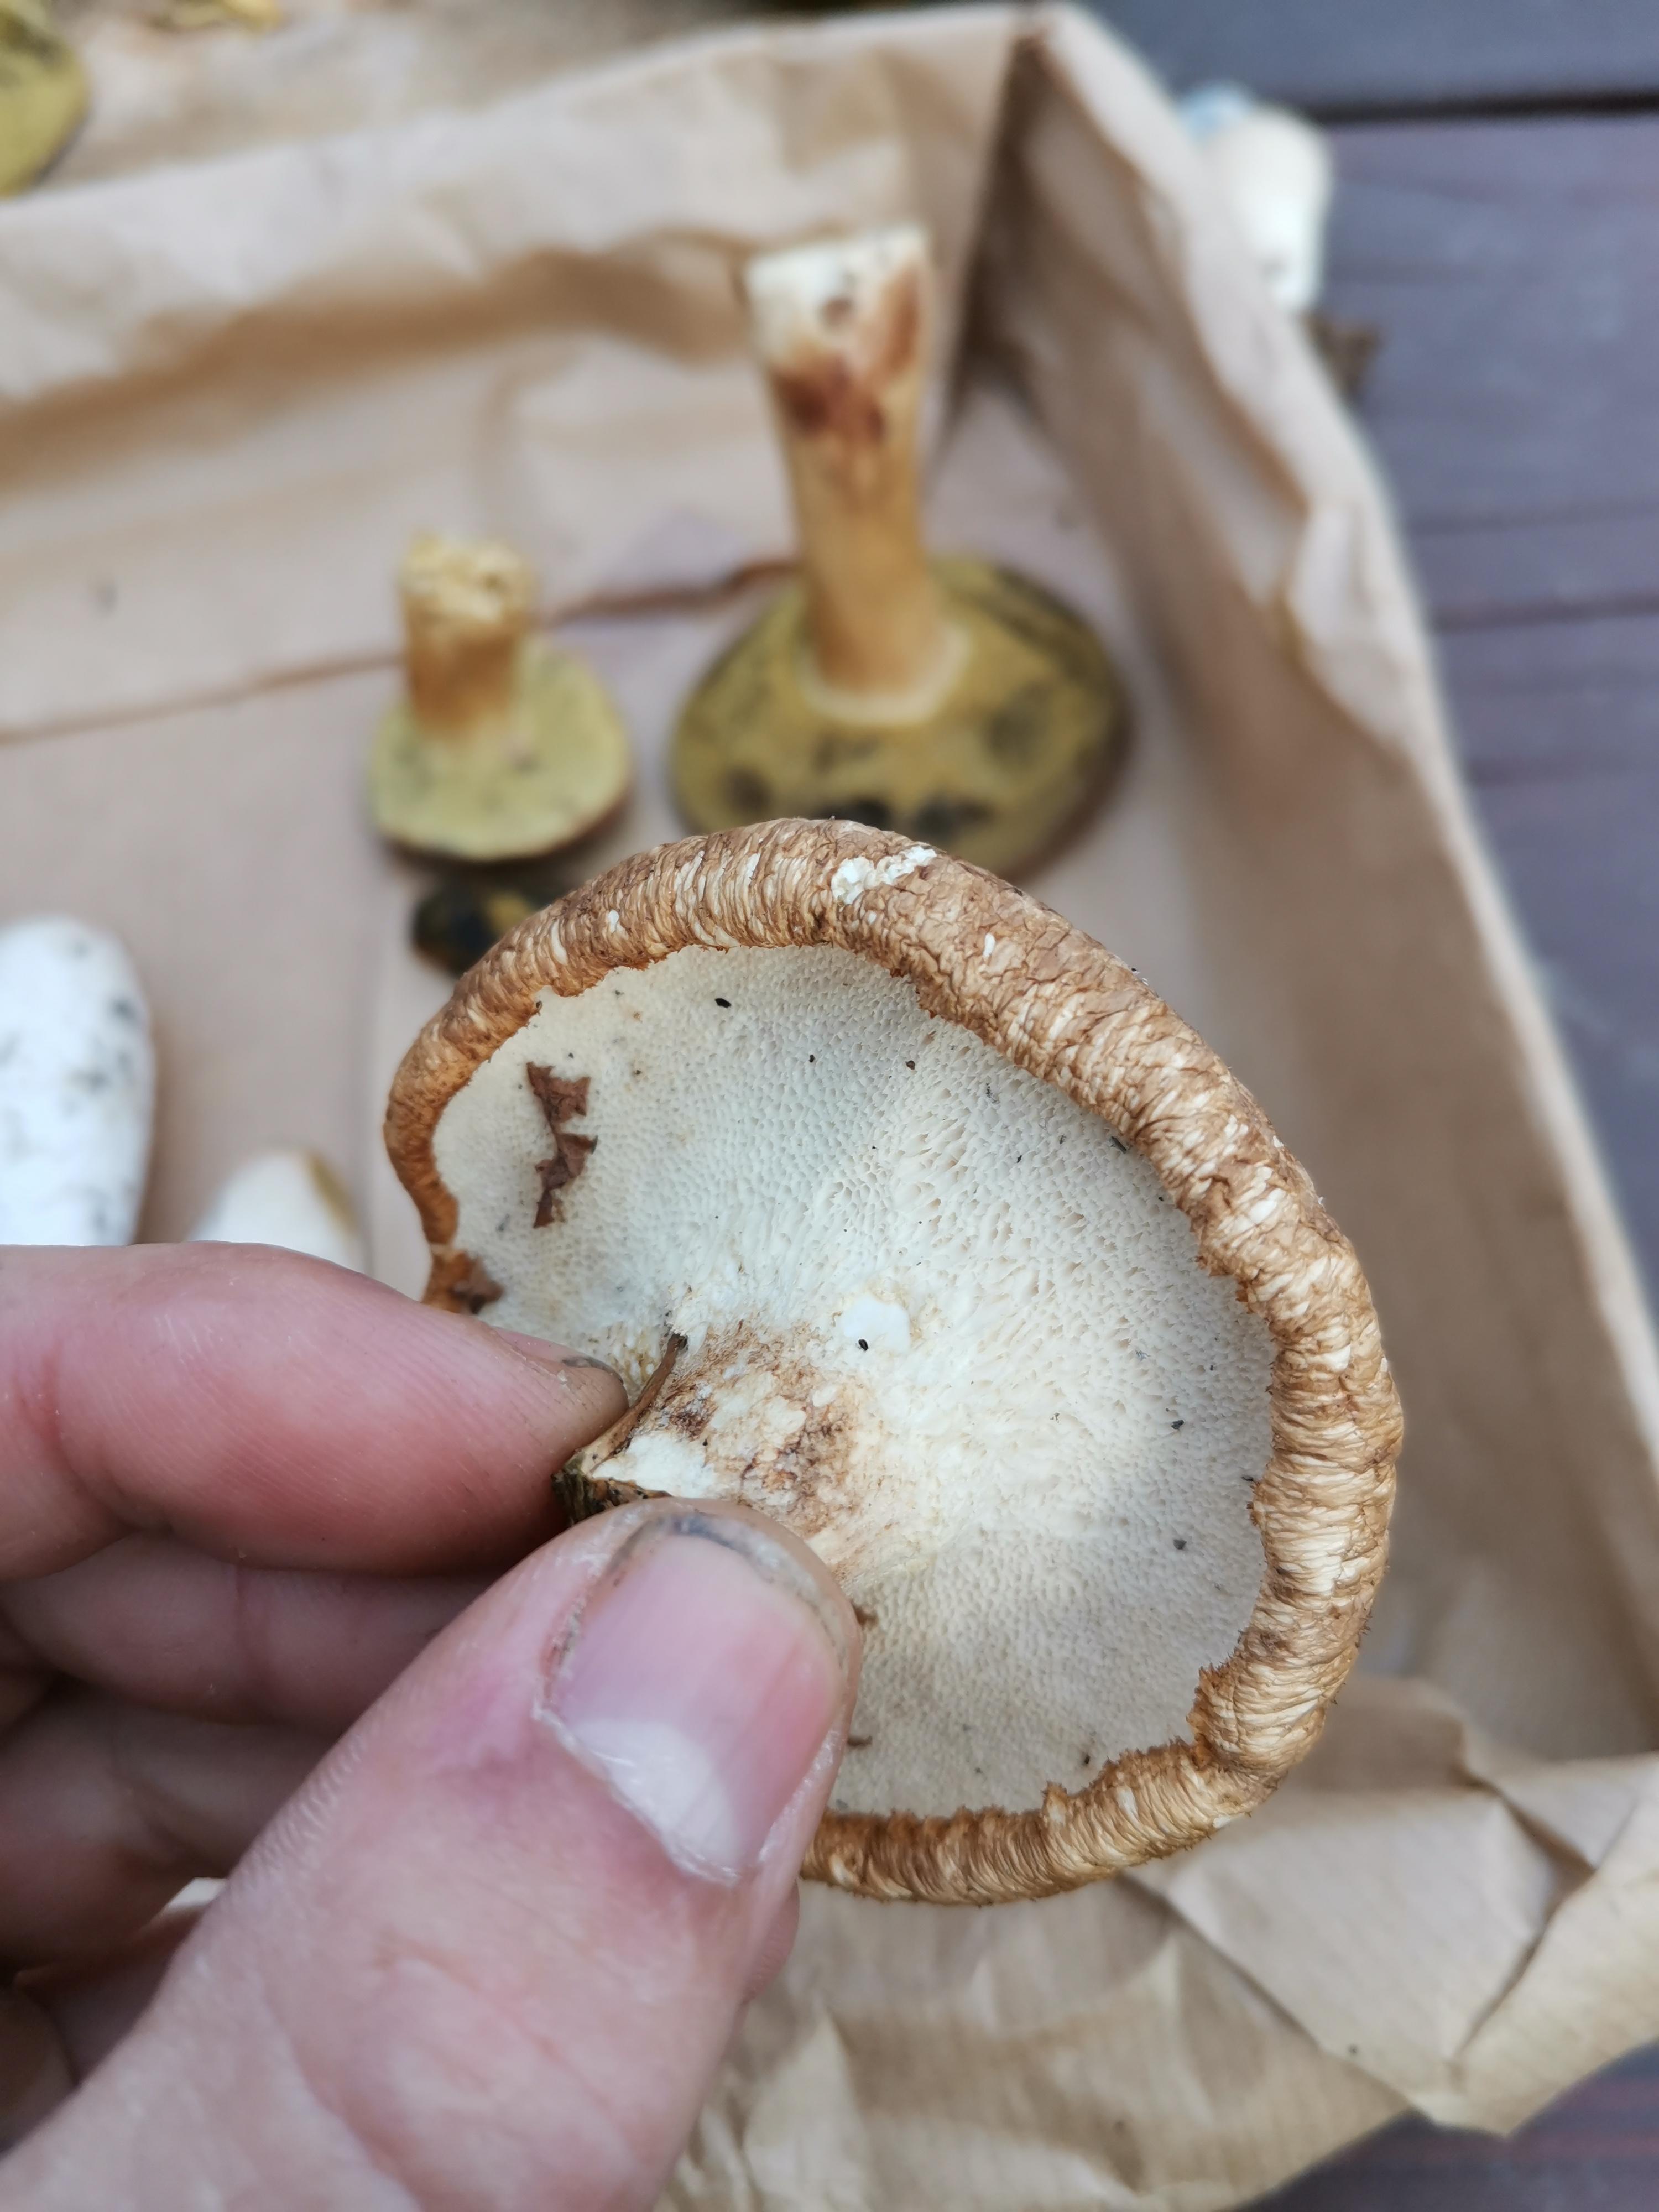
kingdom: Fungi
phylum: Basidiomycota
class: Agaricomycetes
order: Polyporales
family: Polyporaceae
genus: Polyporus
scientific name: Polyporus tuberaster
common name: knoldet stilkporesvamp
